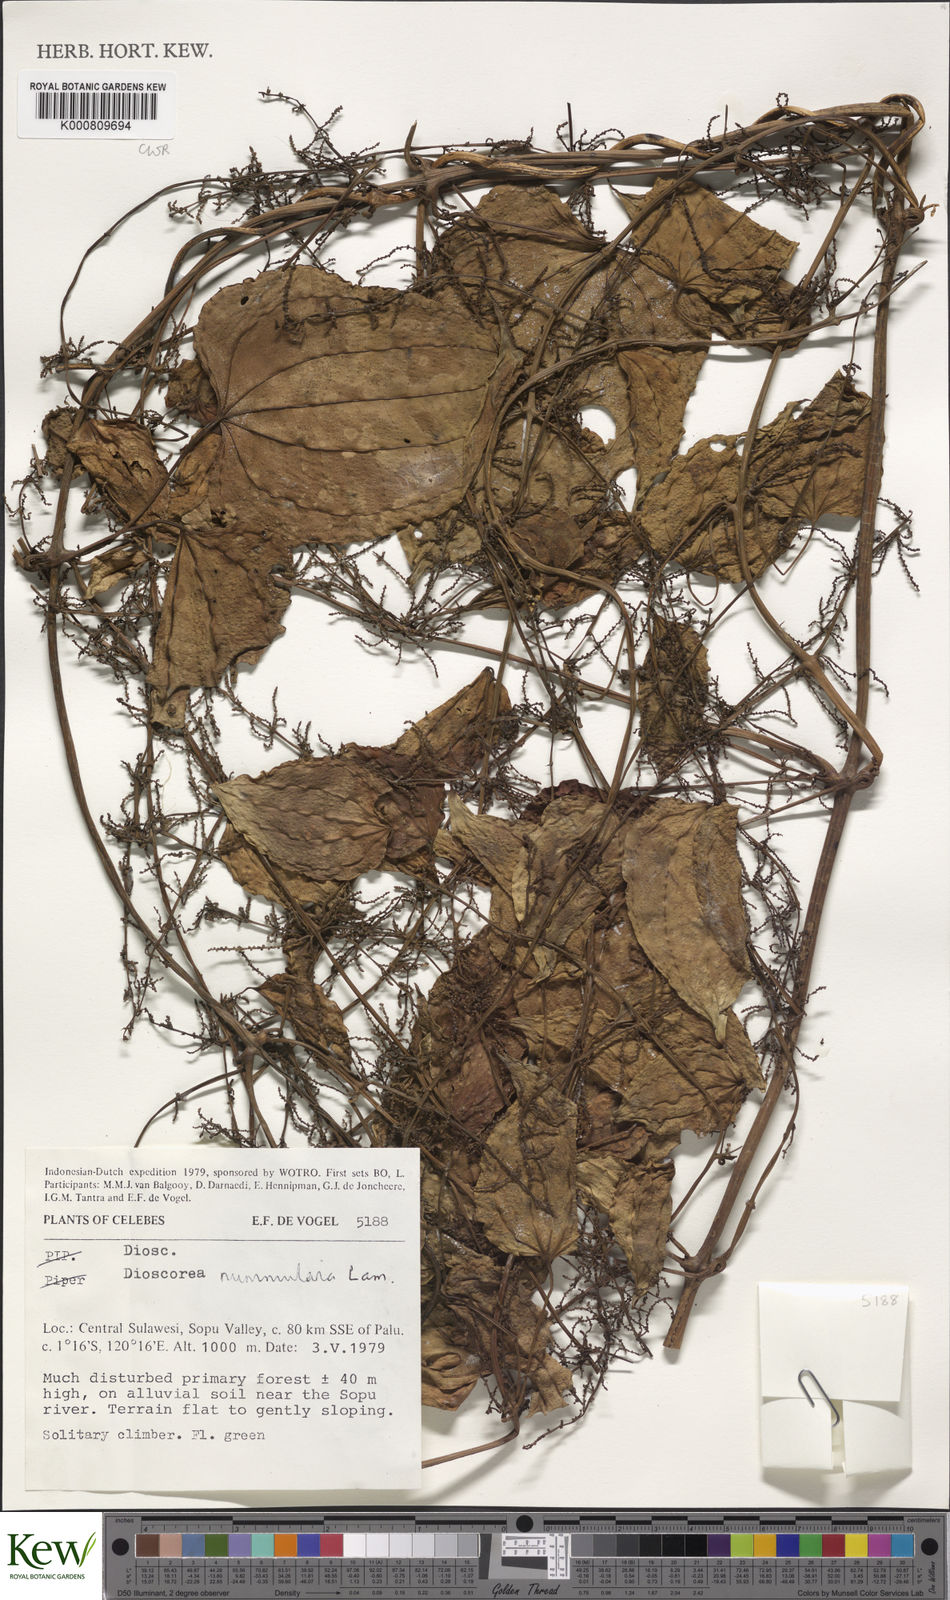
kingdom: Plantae
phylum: Tracheophyta
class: Liliopsida
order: Dioscoreales
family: Dioscoreaceae
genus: Dioscorea
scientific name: Dioscorea nummularia
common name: Pacific yam
